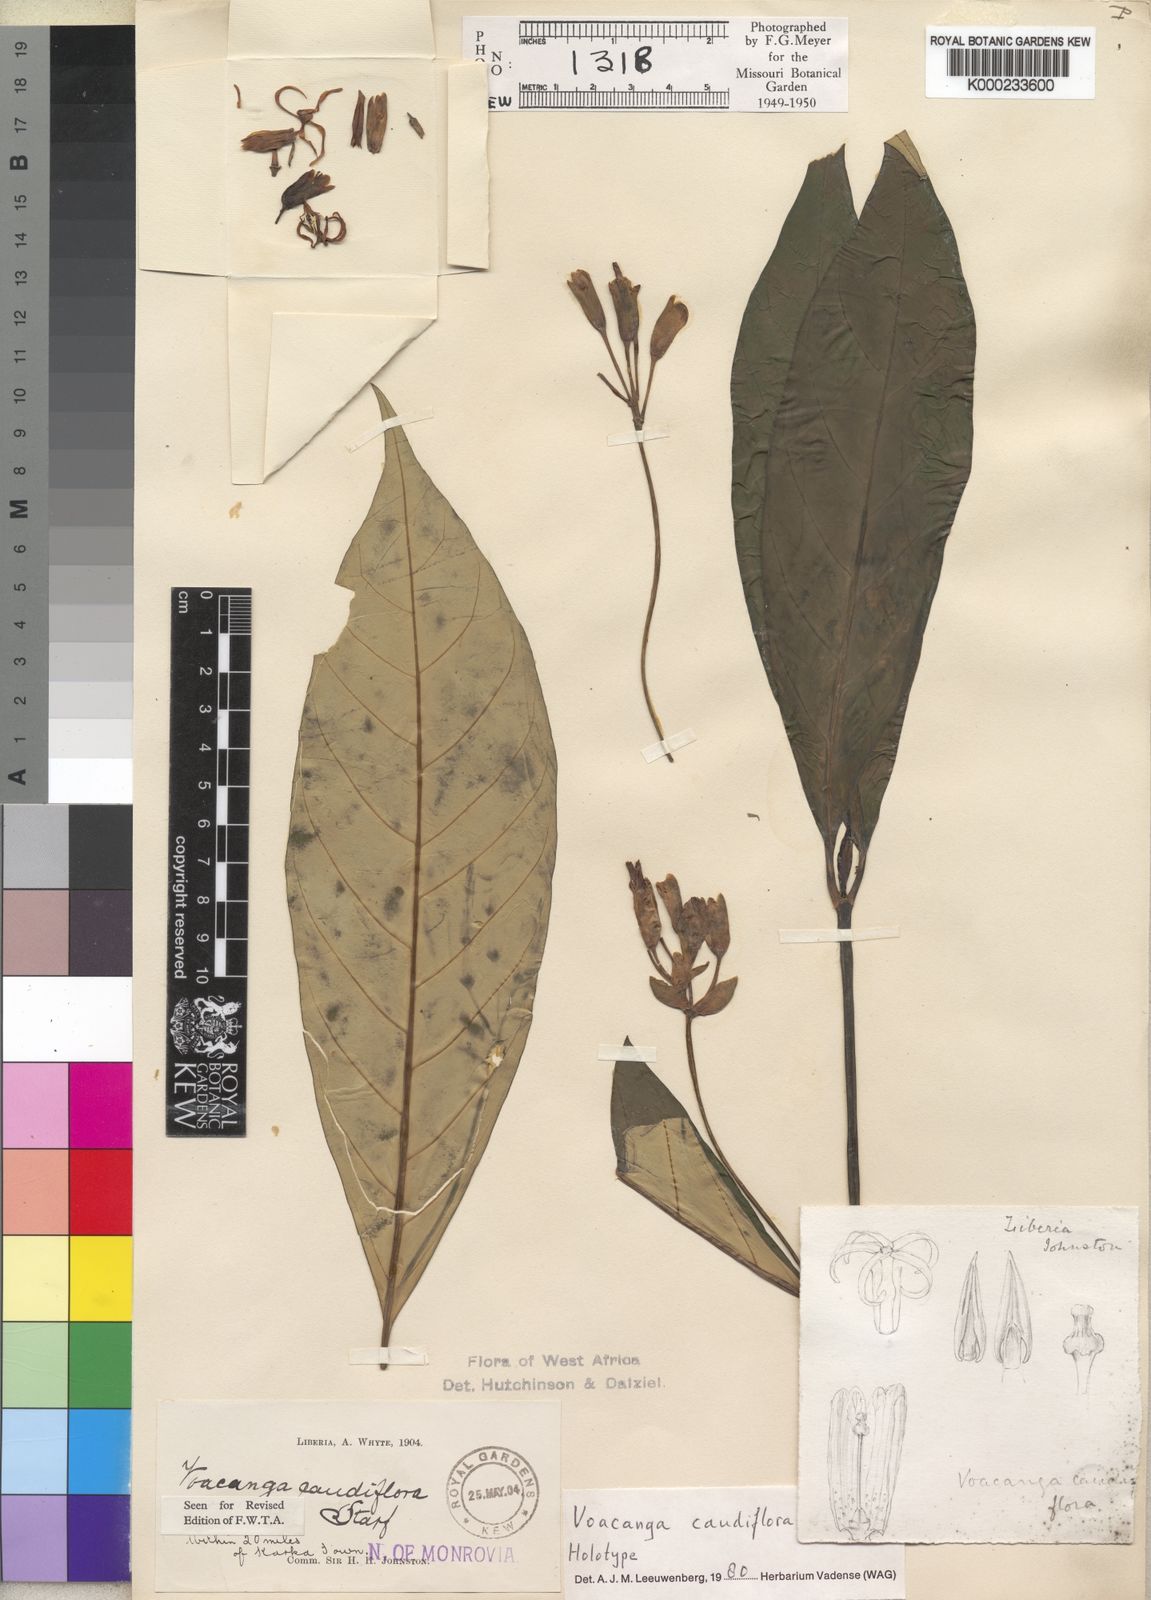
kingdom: Plantae
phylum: Tracheophyta
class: Magnoliopsida
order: Gentianales
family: Apocynaceae
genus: Voacanga
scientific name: Voacanga caudiflora
